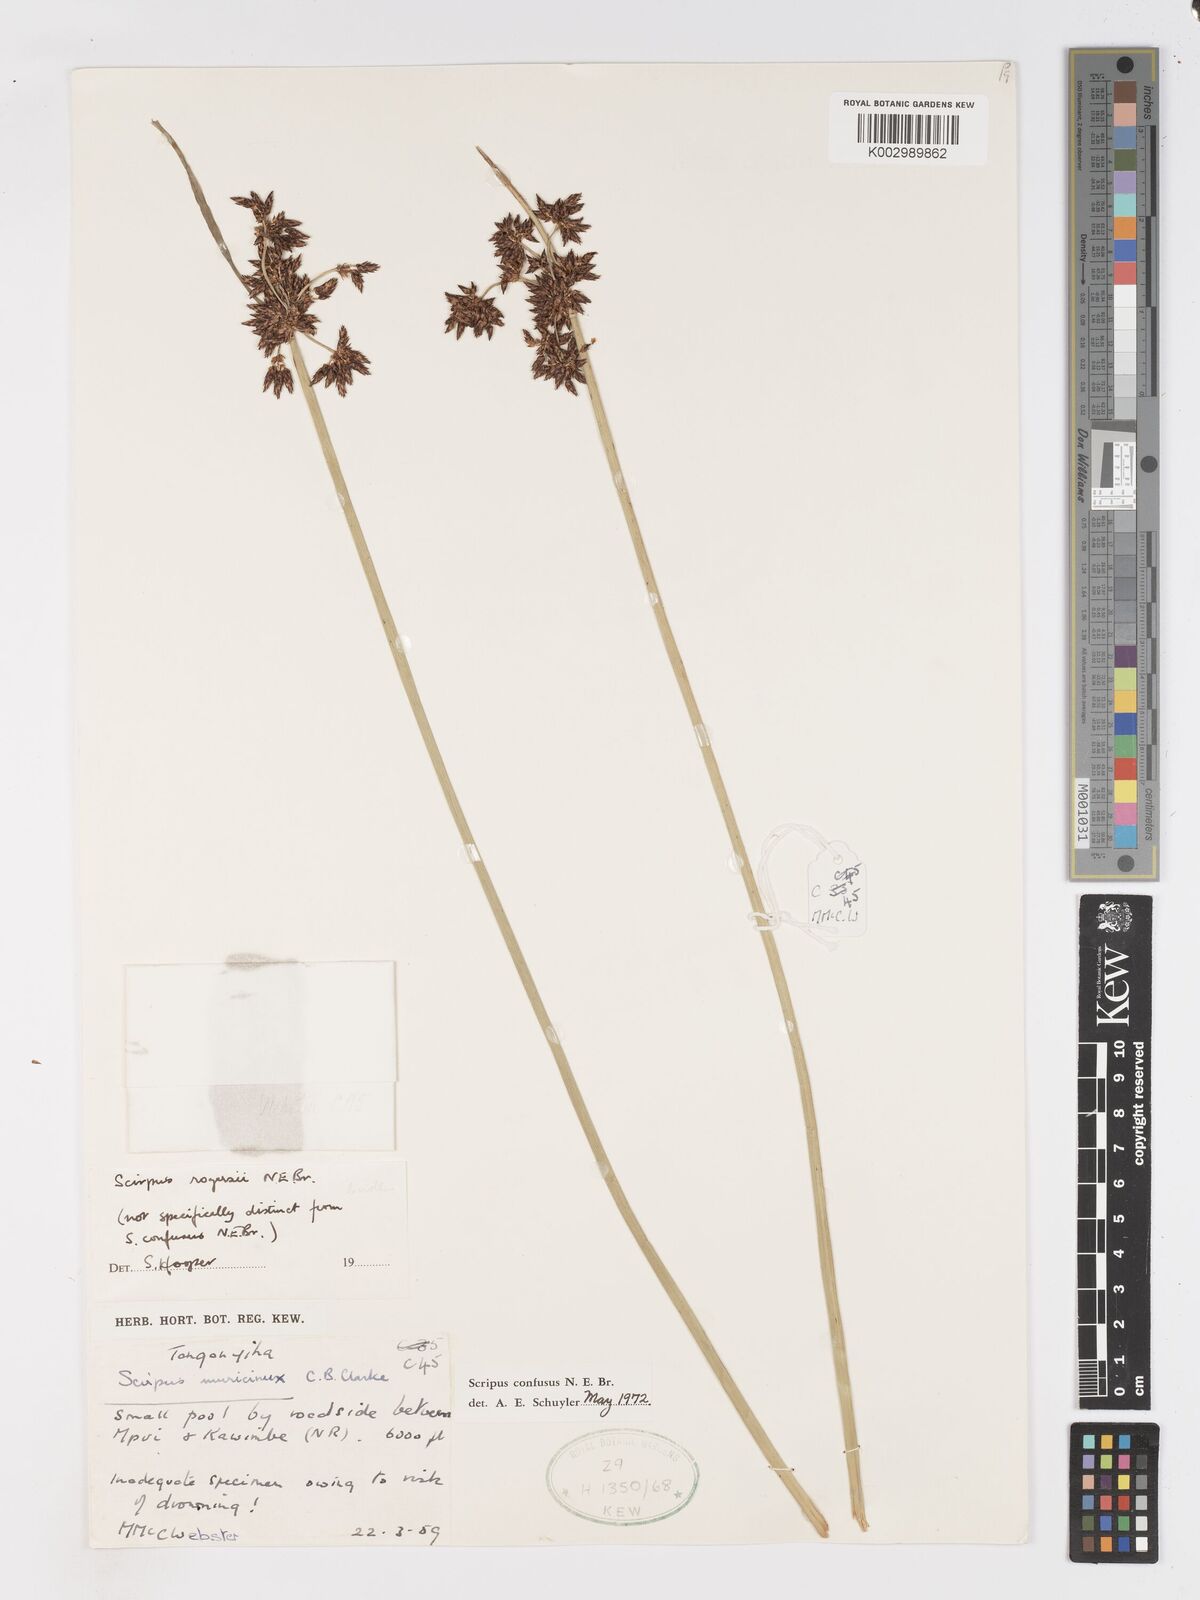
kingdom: Plantae
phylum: Tracheophyta
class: Liliopsida
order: Poales
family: Cyperaceae
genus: Schoenoplectiella
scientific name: Schoenoplectiella rogersii
